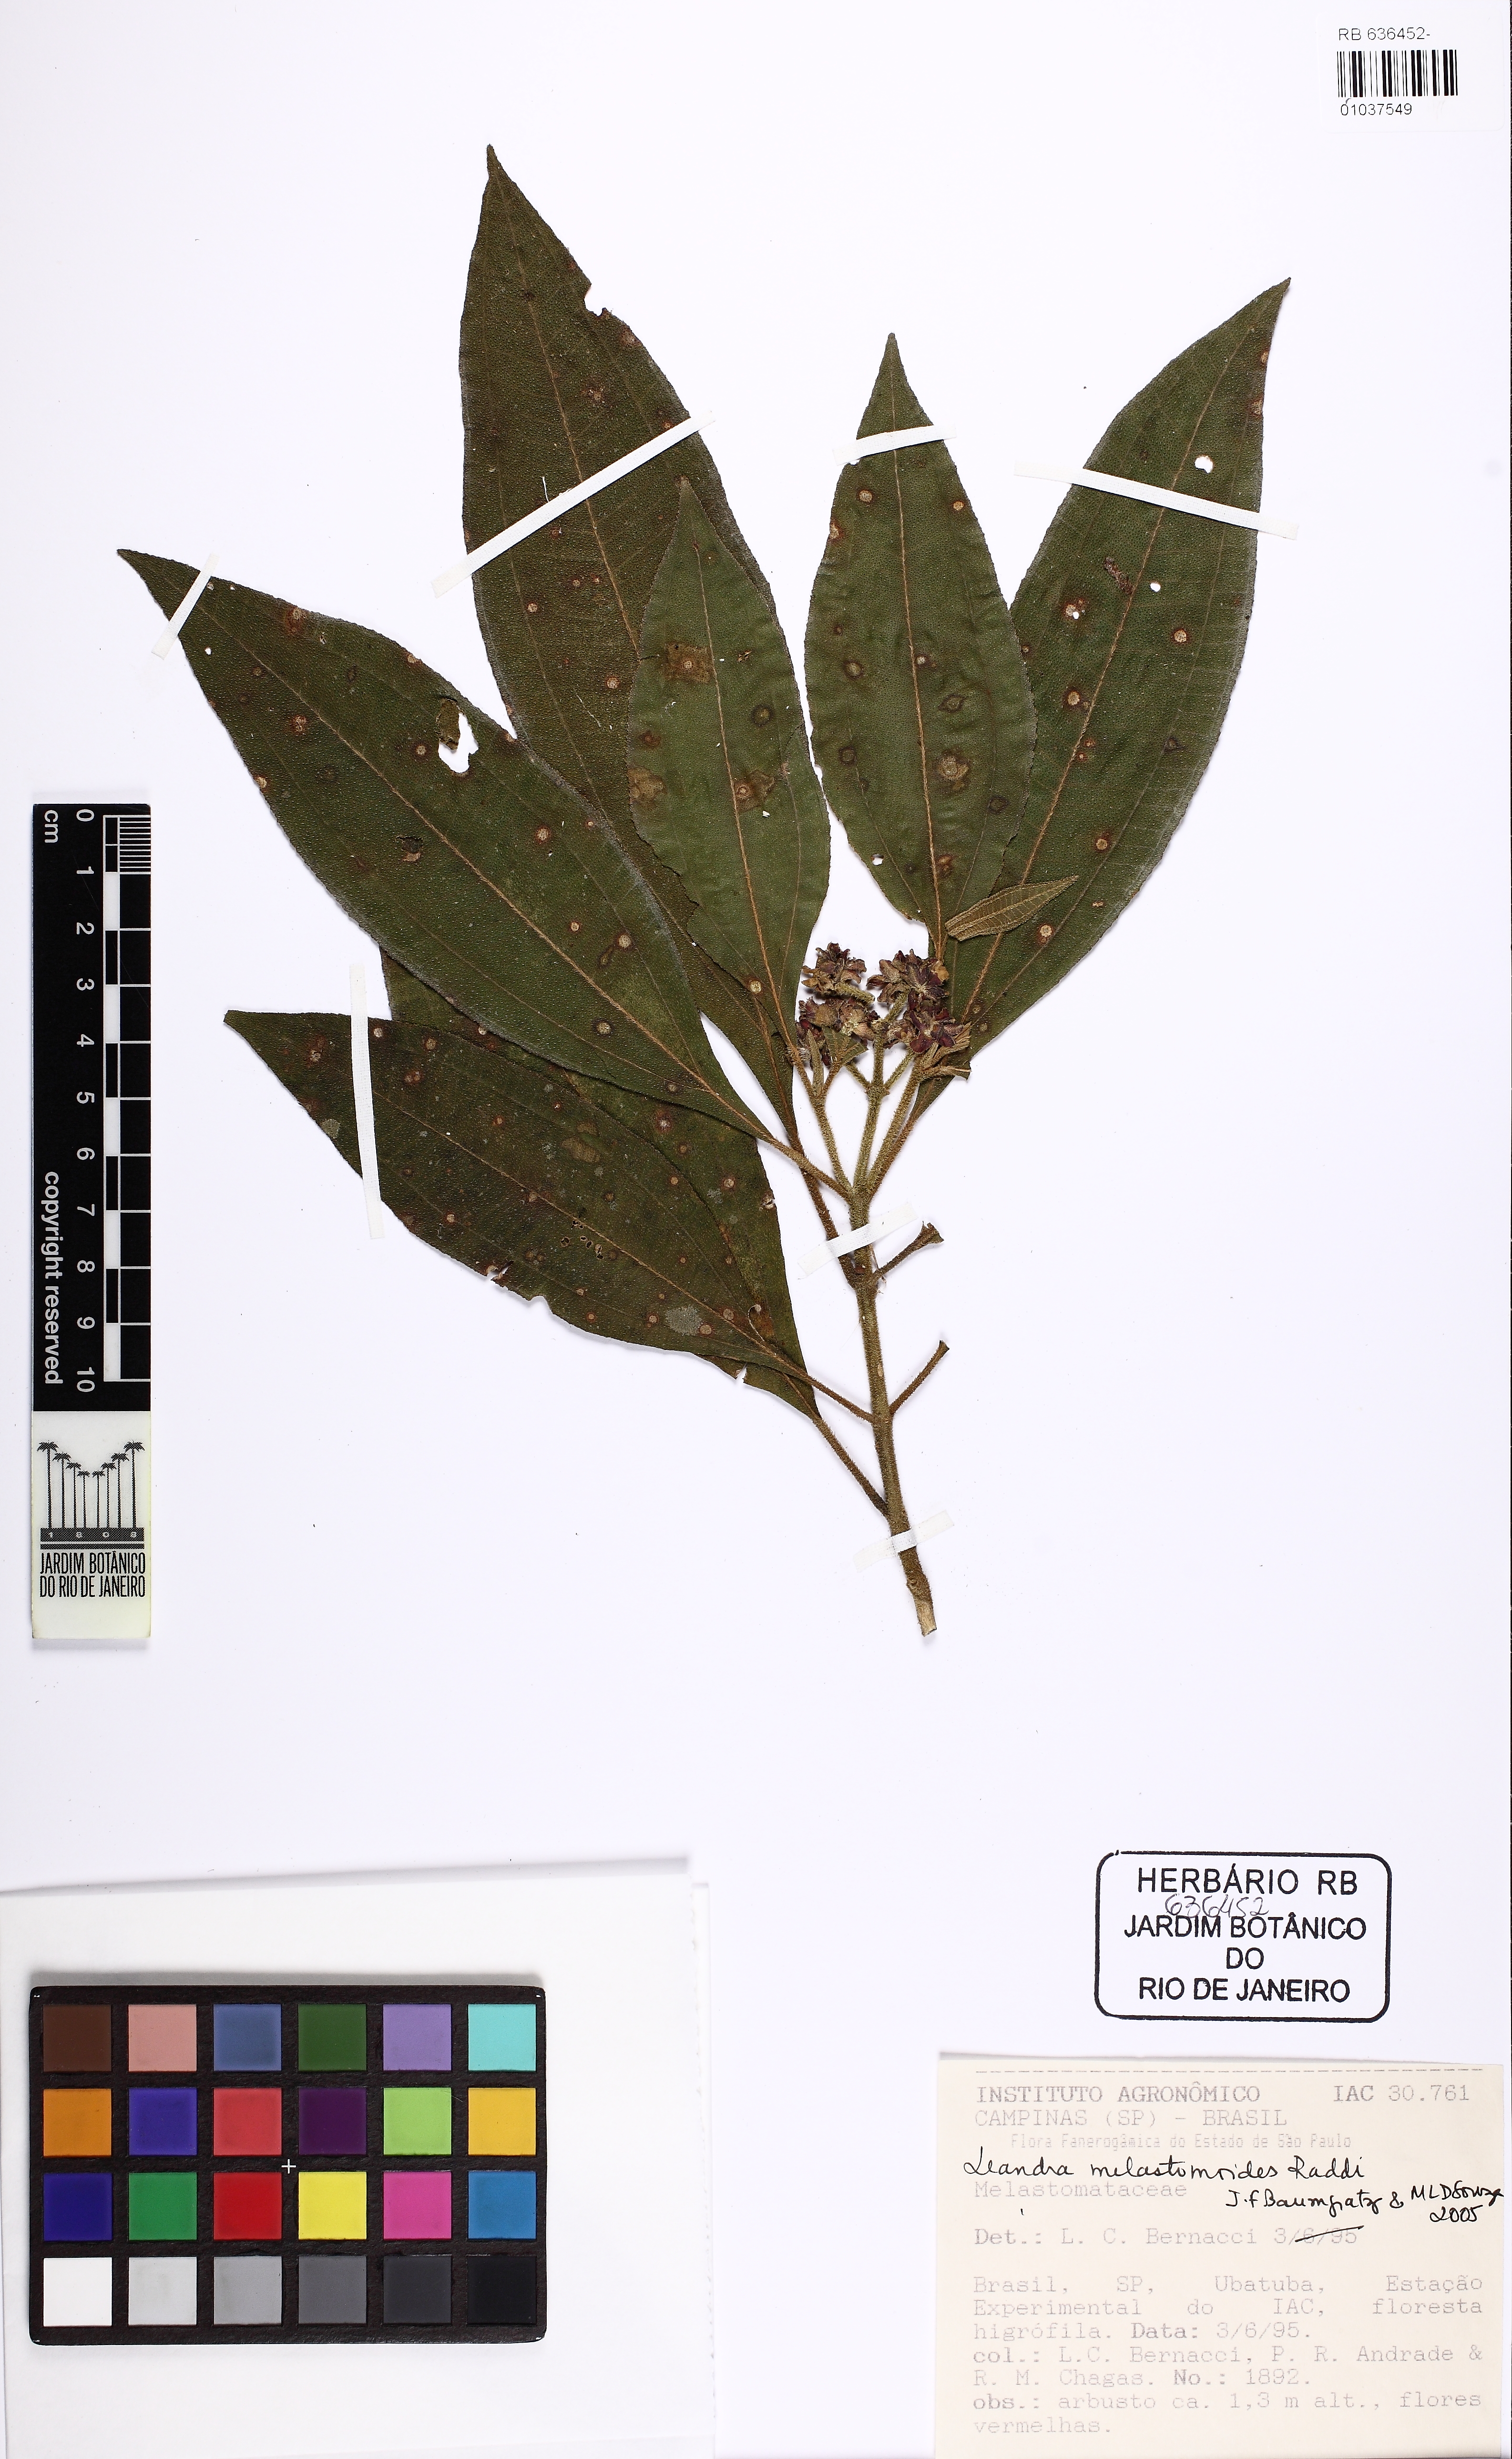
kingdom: Plantae
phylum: Tracheophyta
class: Magnoliopsida
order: Myrtales
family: Melastomataceae
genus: Miconia
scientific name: Miconia melastomoides
